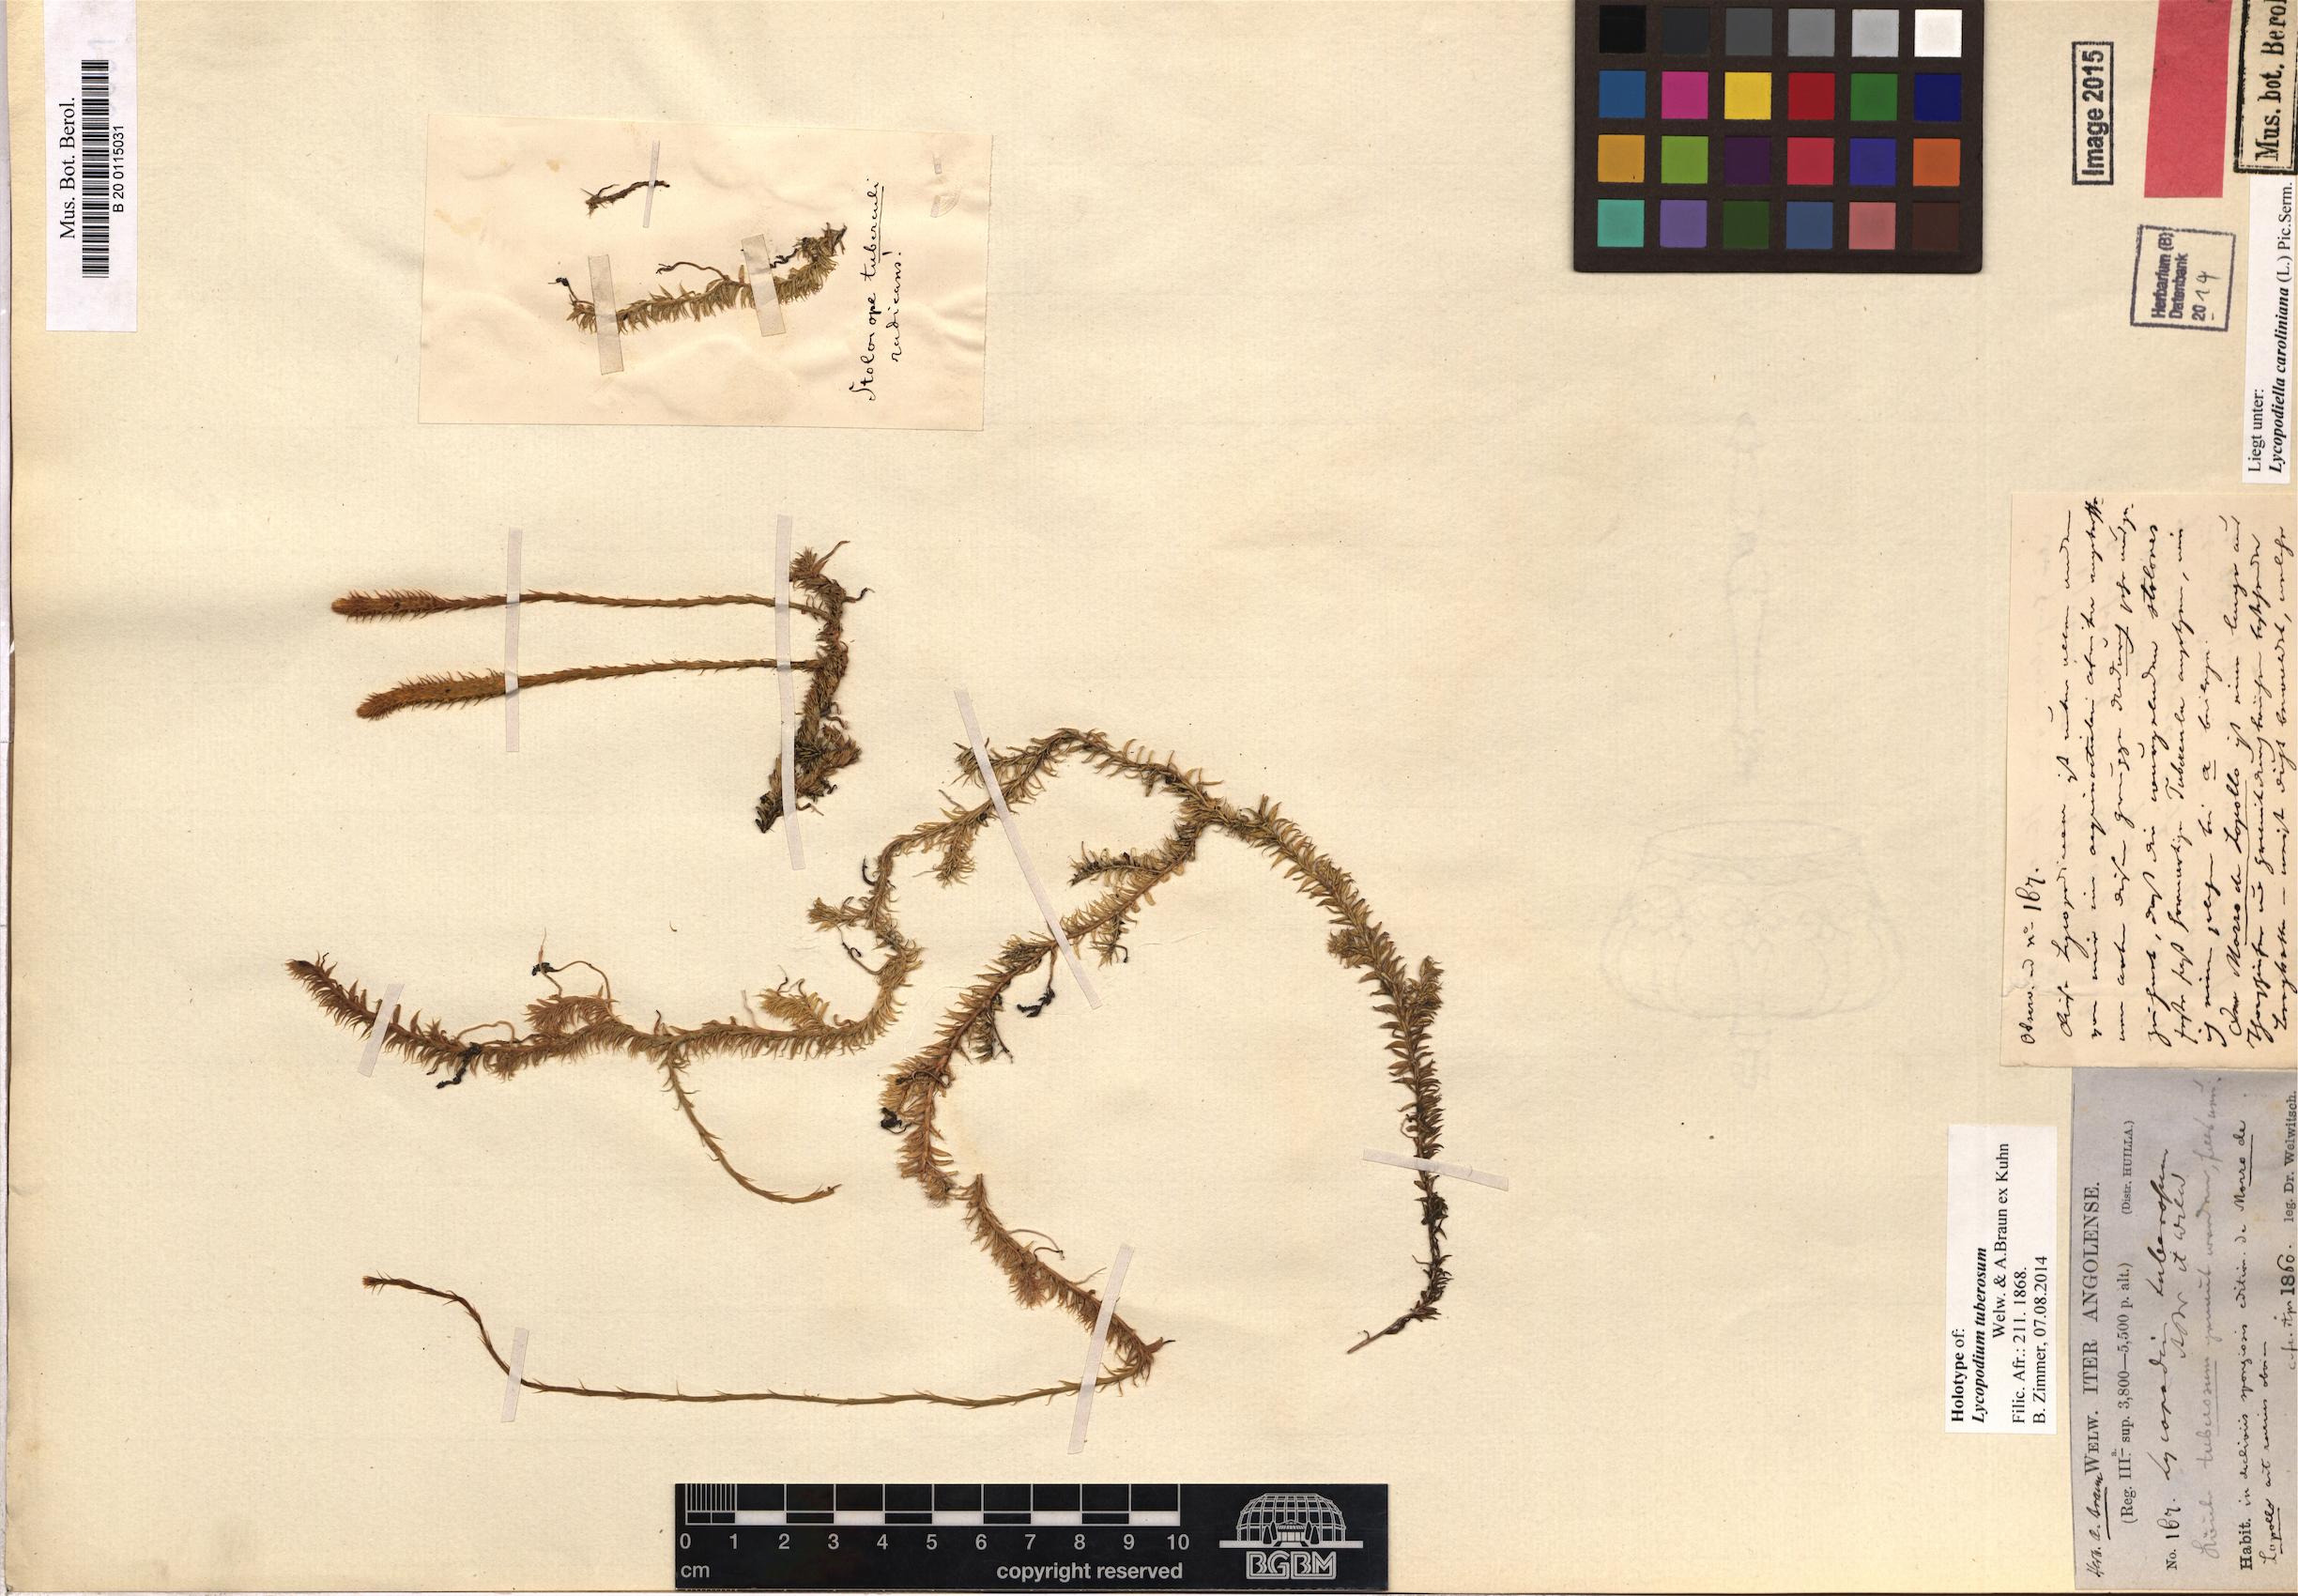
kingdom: Plantae
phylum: Tracheophyta
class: Lycopodiopsida
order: Lycopodiales
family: Lycopodiaceae
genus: Pseudolycopodiella
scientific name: Pseudolycopodiella caroliniana
